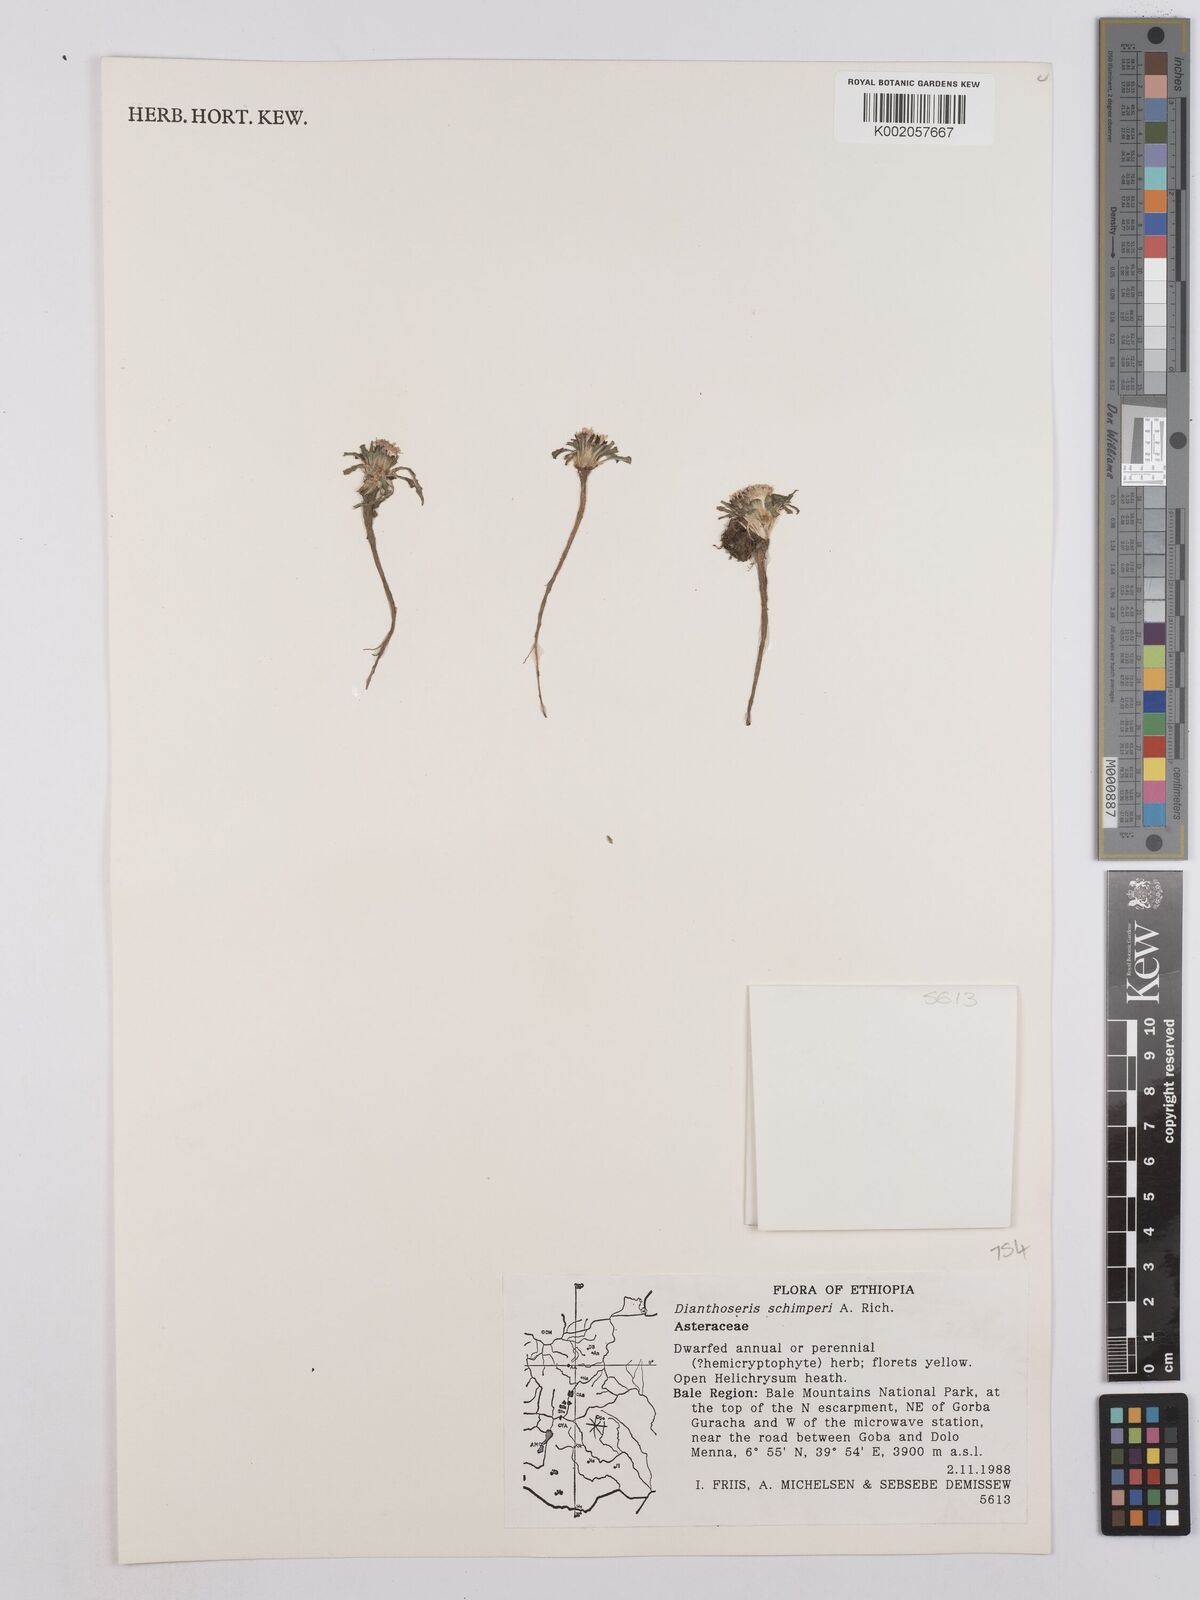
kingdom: Plantae
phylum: Tracheophyta
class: Magnoliopsida
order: Asterales
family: Asteraceae
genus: Crepis
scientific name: Crepis foetida
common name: Stinking hawk's-beard
